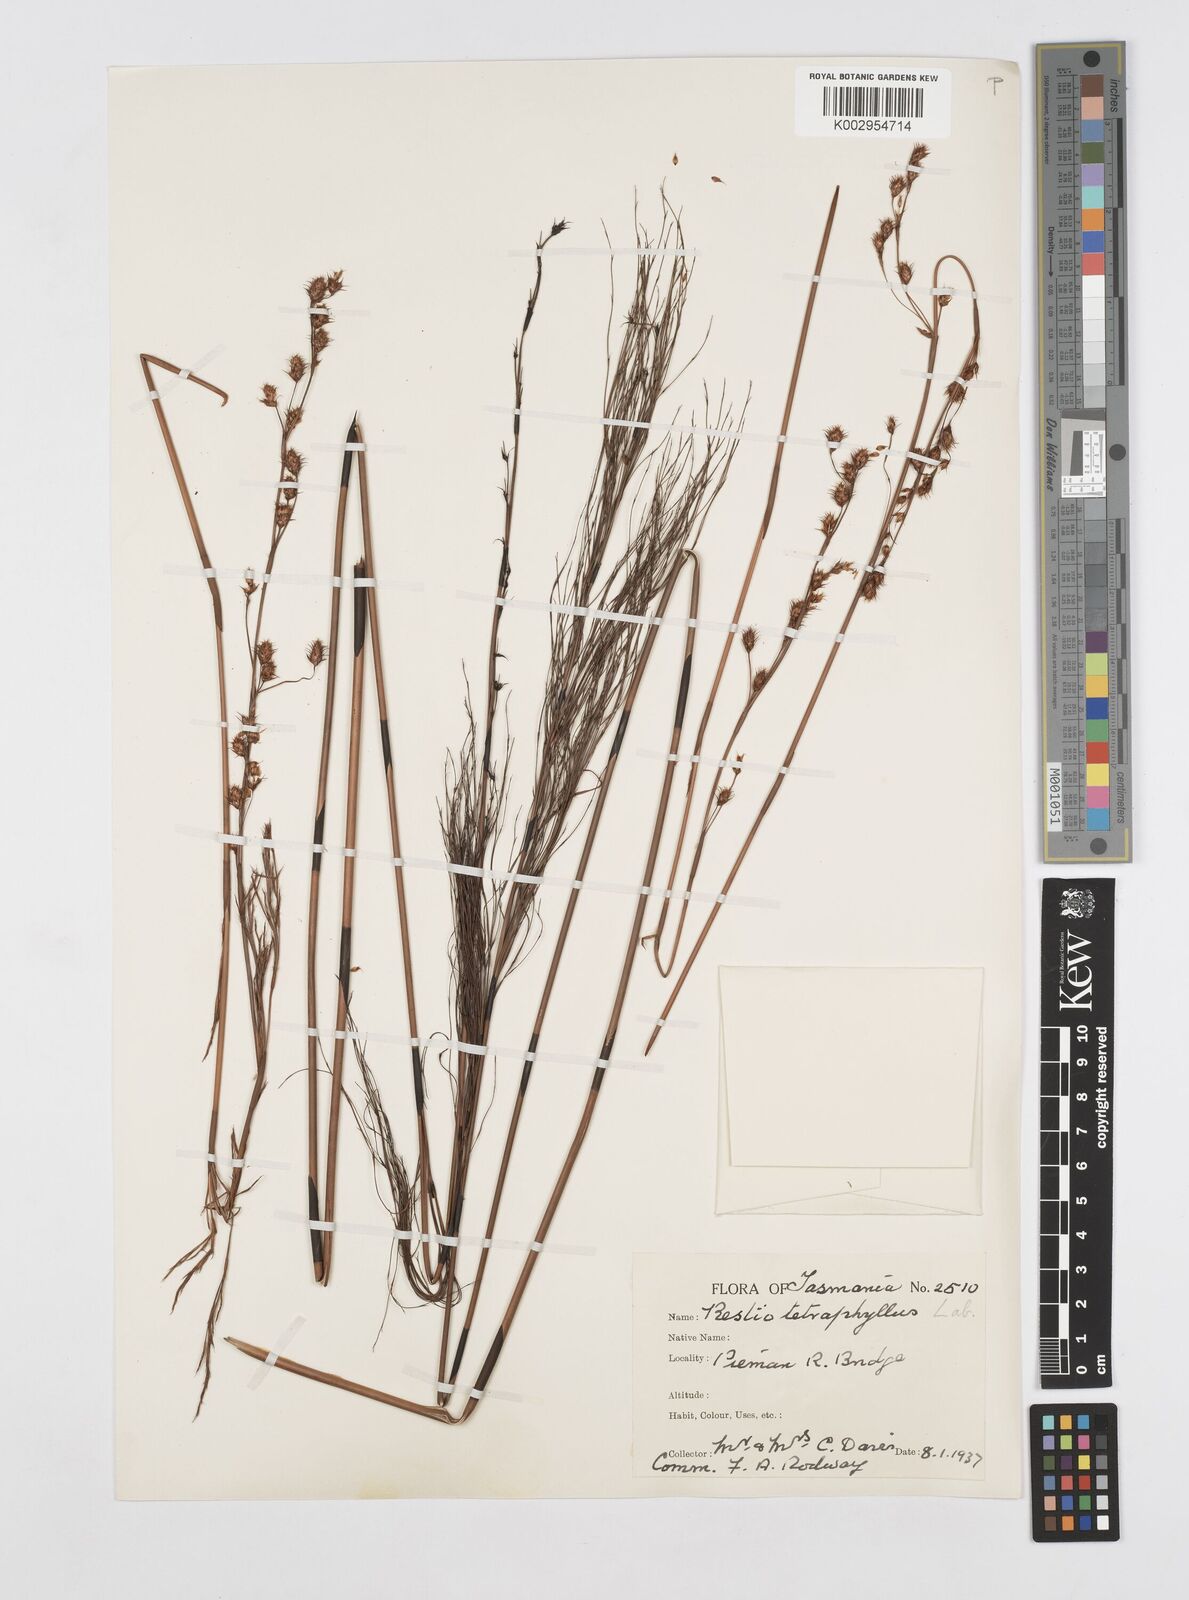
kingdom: Plantae
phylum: Tracheophyta
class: Liliopsida
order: Poales
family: Restionaceae
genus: Baloskion
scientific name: Baloskion tetraphyllum
